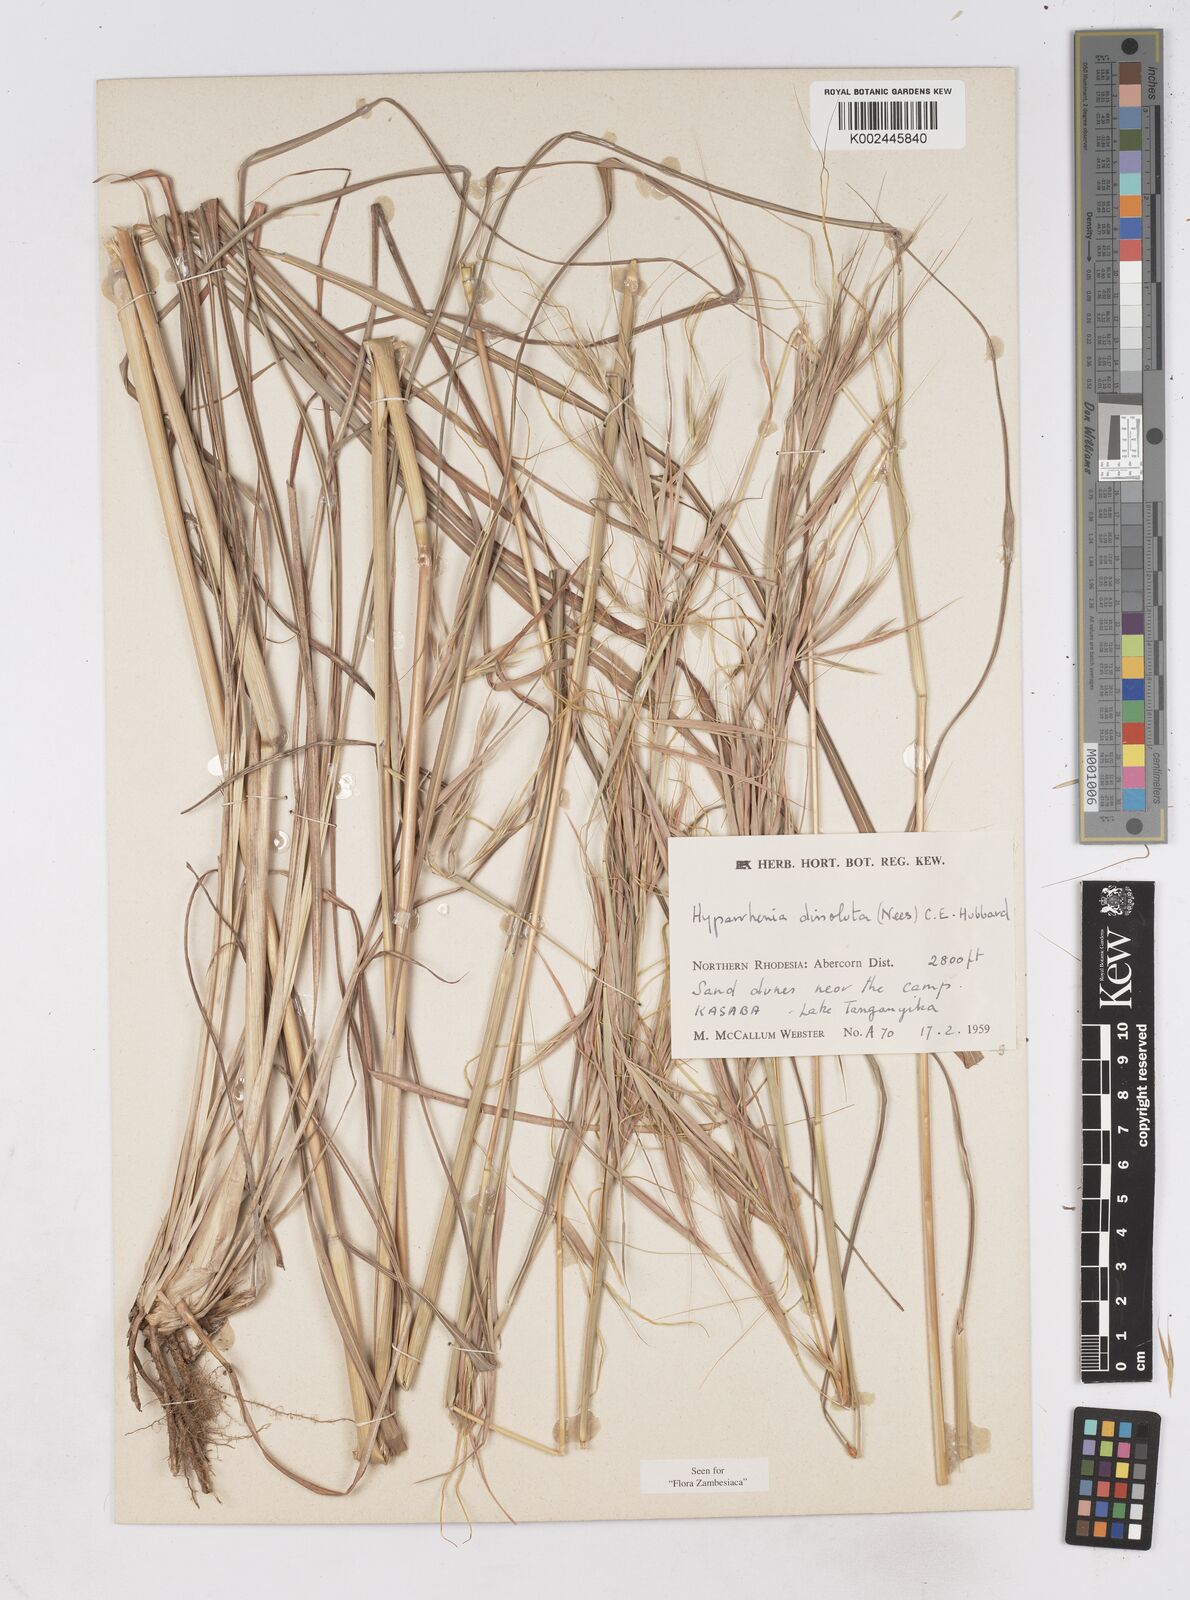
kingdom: Plantae
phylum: Tracheophyta
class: Liliopsida
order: Poales
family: Poaceae
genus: Hyperthelia
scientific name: Hyperthelia dissoluta
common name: Yellow thatching grass
